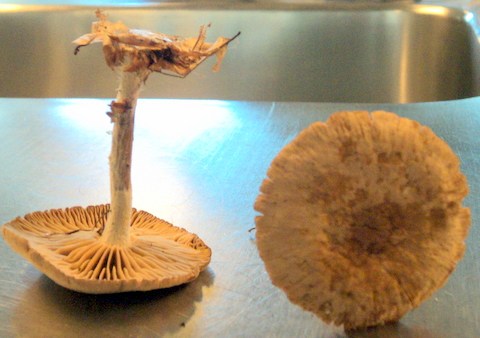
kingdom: Fungi
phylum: Basidiomycota
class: Agaricomycetes
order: Agaricales
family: Omphalotaceae
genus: Collybiopsis
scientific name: Collybiopsis peronata
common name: bestøvlet fladhat
